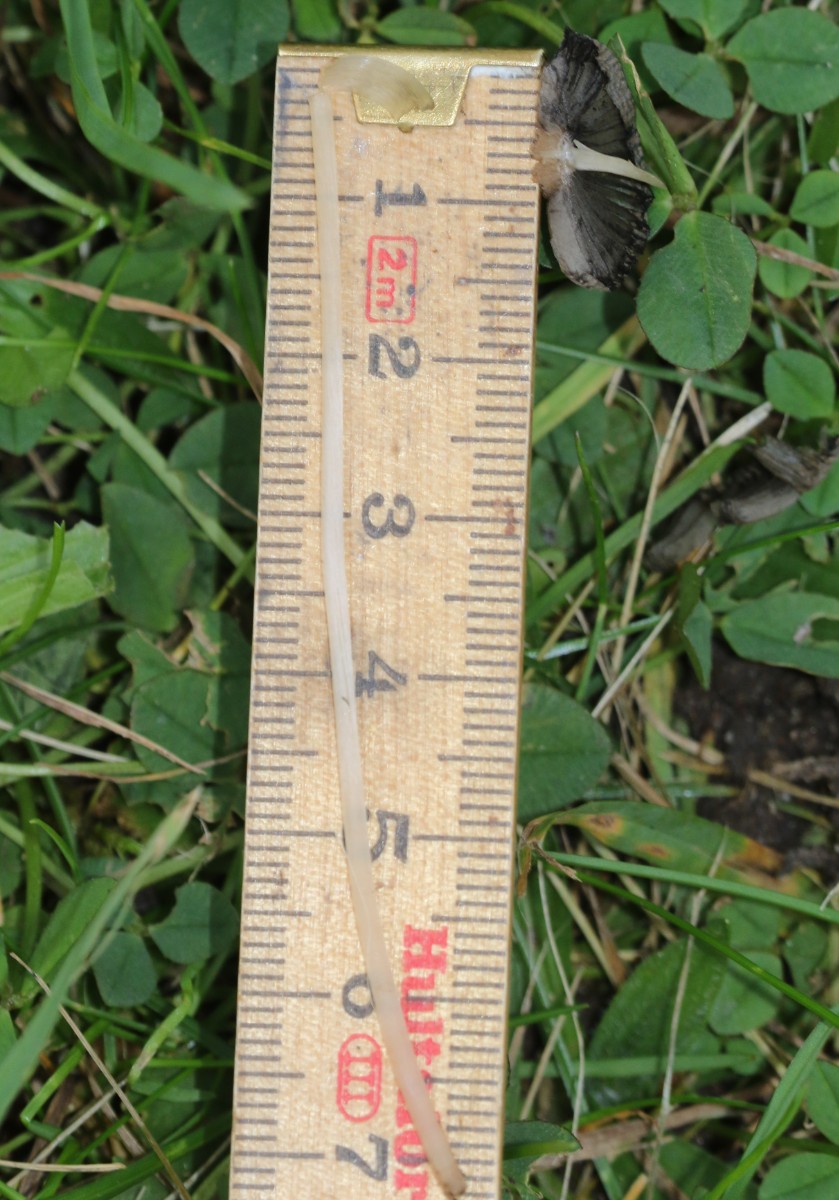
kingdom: Fungi
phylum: Basidiomycota
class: Agaricomycetes
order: Agaricales
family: Psathyrellaceae
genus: Parasola
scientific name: Parasola
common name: hjulhat
